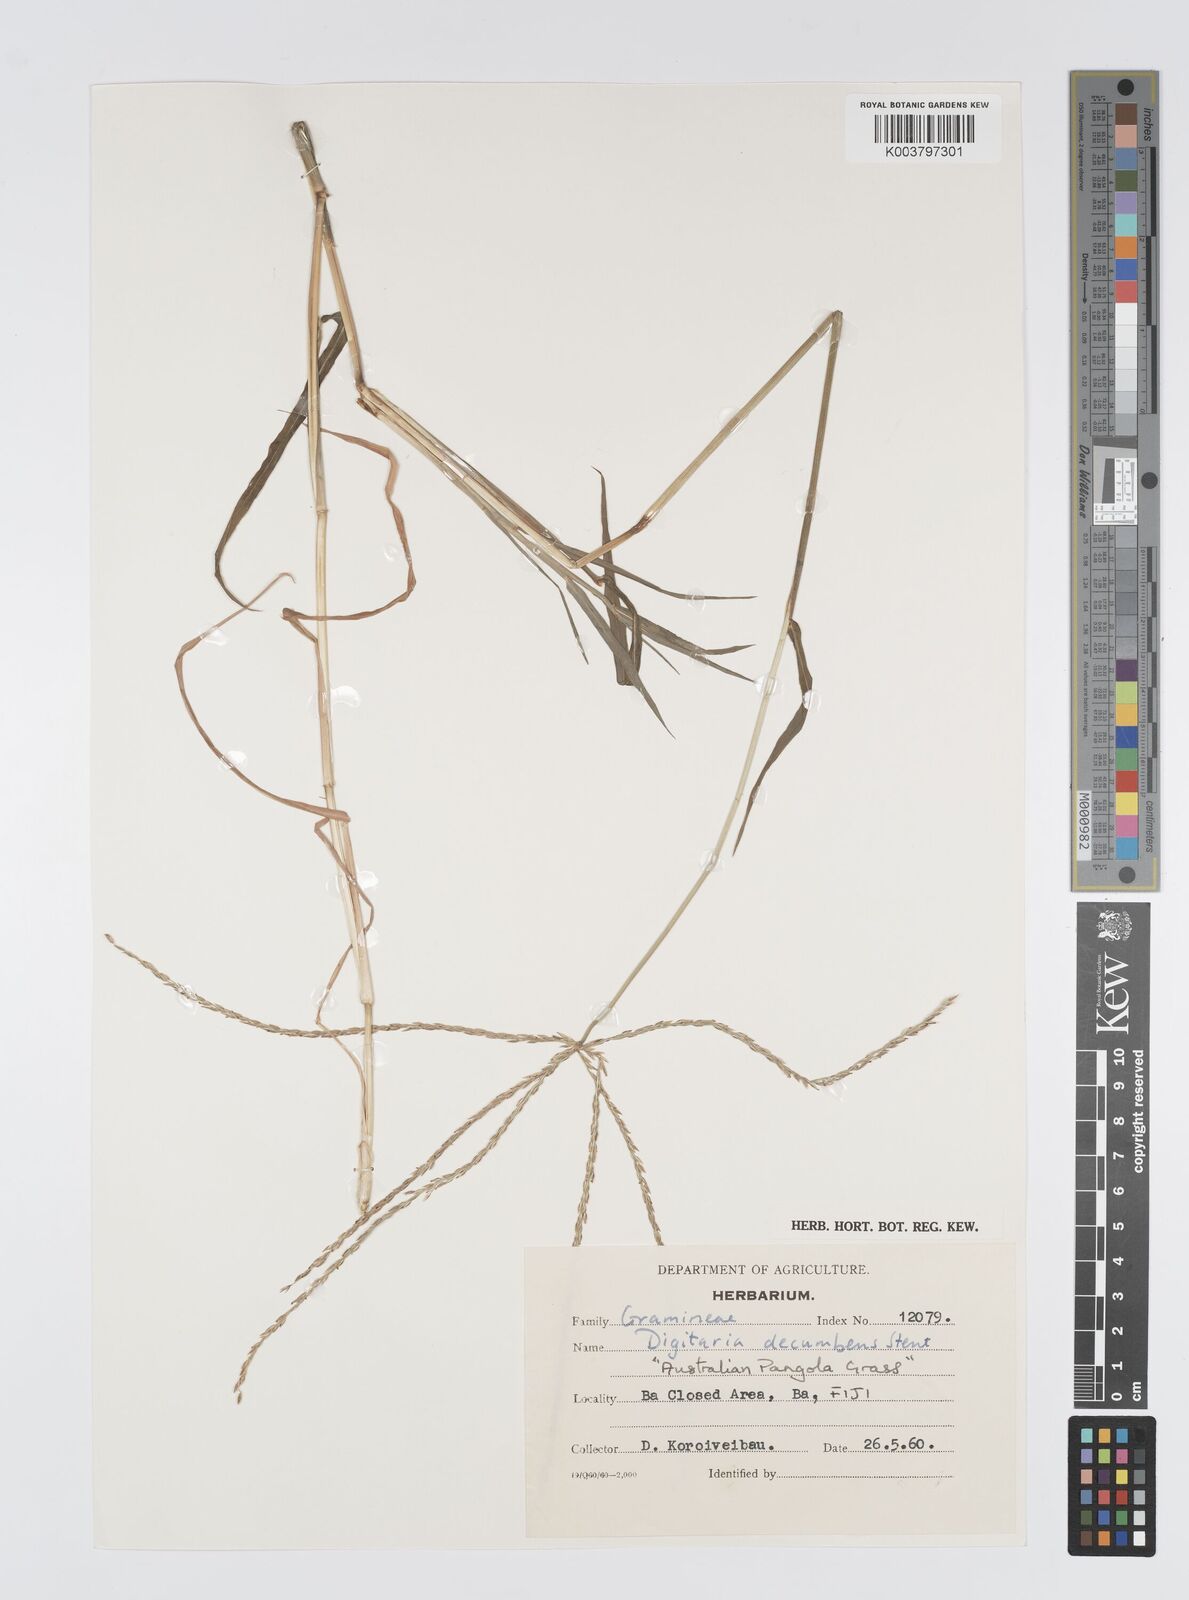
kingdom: Plantae
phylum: Tracheophyta
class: Liliopsida
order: Poales
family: Poaceae
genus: Digitaria
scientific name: Digitaria eriantha
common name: Digitgrass
